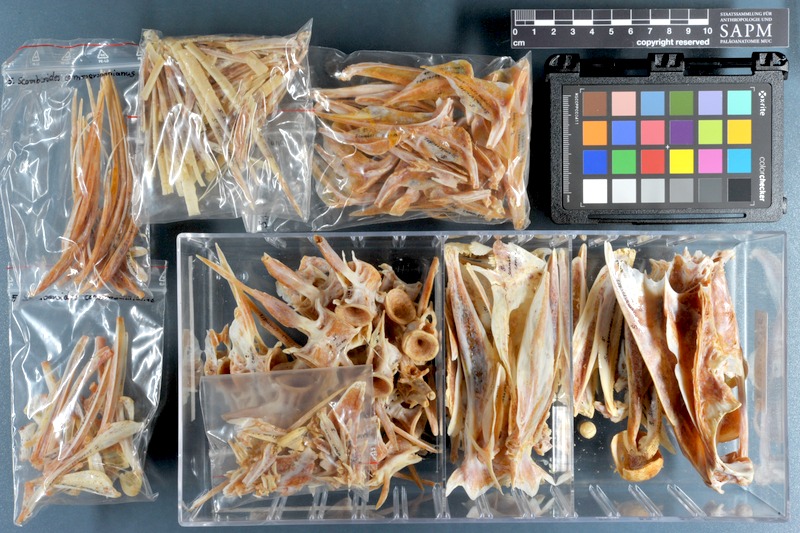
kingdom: Animalia
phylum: Chordata
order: Perciformes
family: Carangidae
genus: Scomberoides
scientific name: Scomberoides commersonnianus
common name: Talang queenfish
